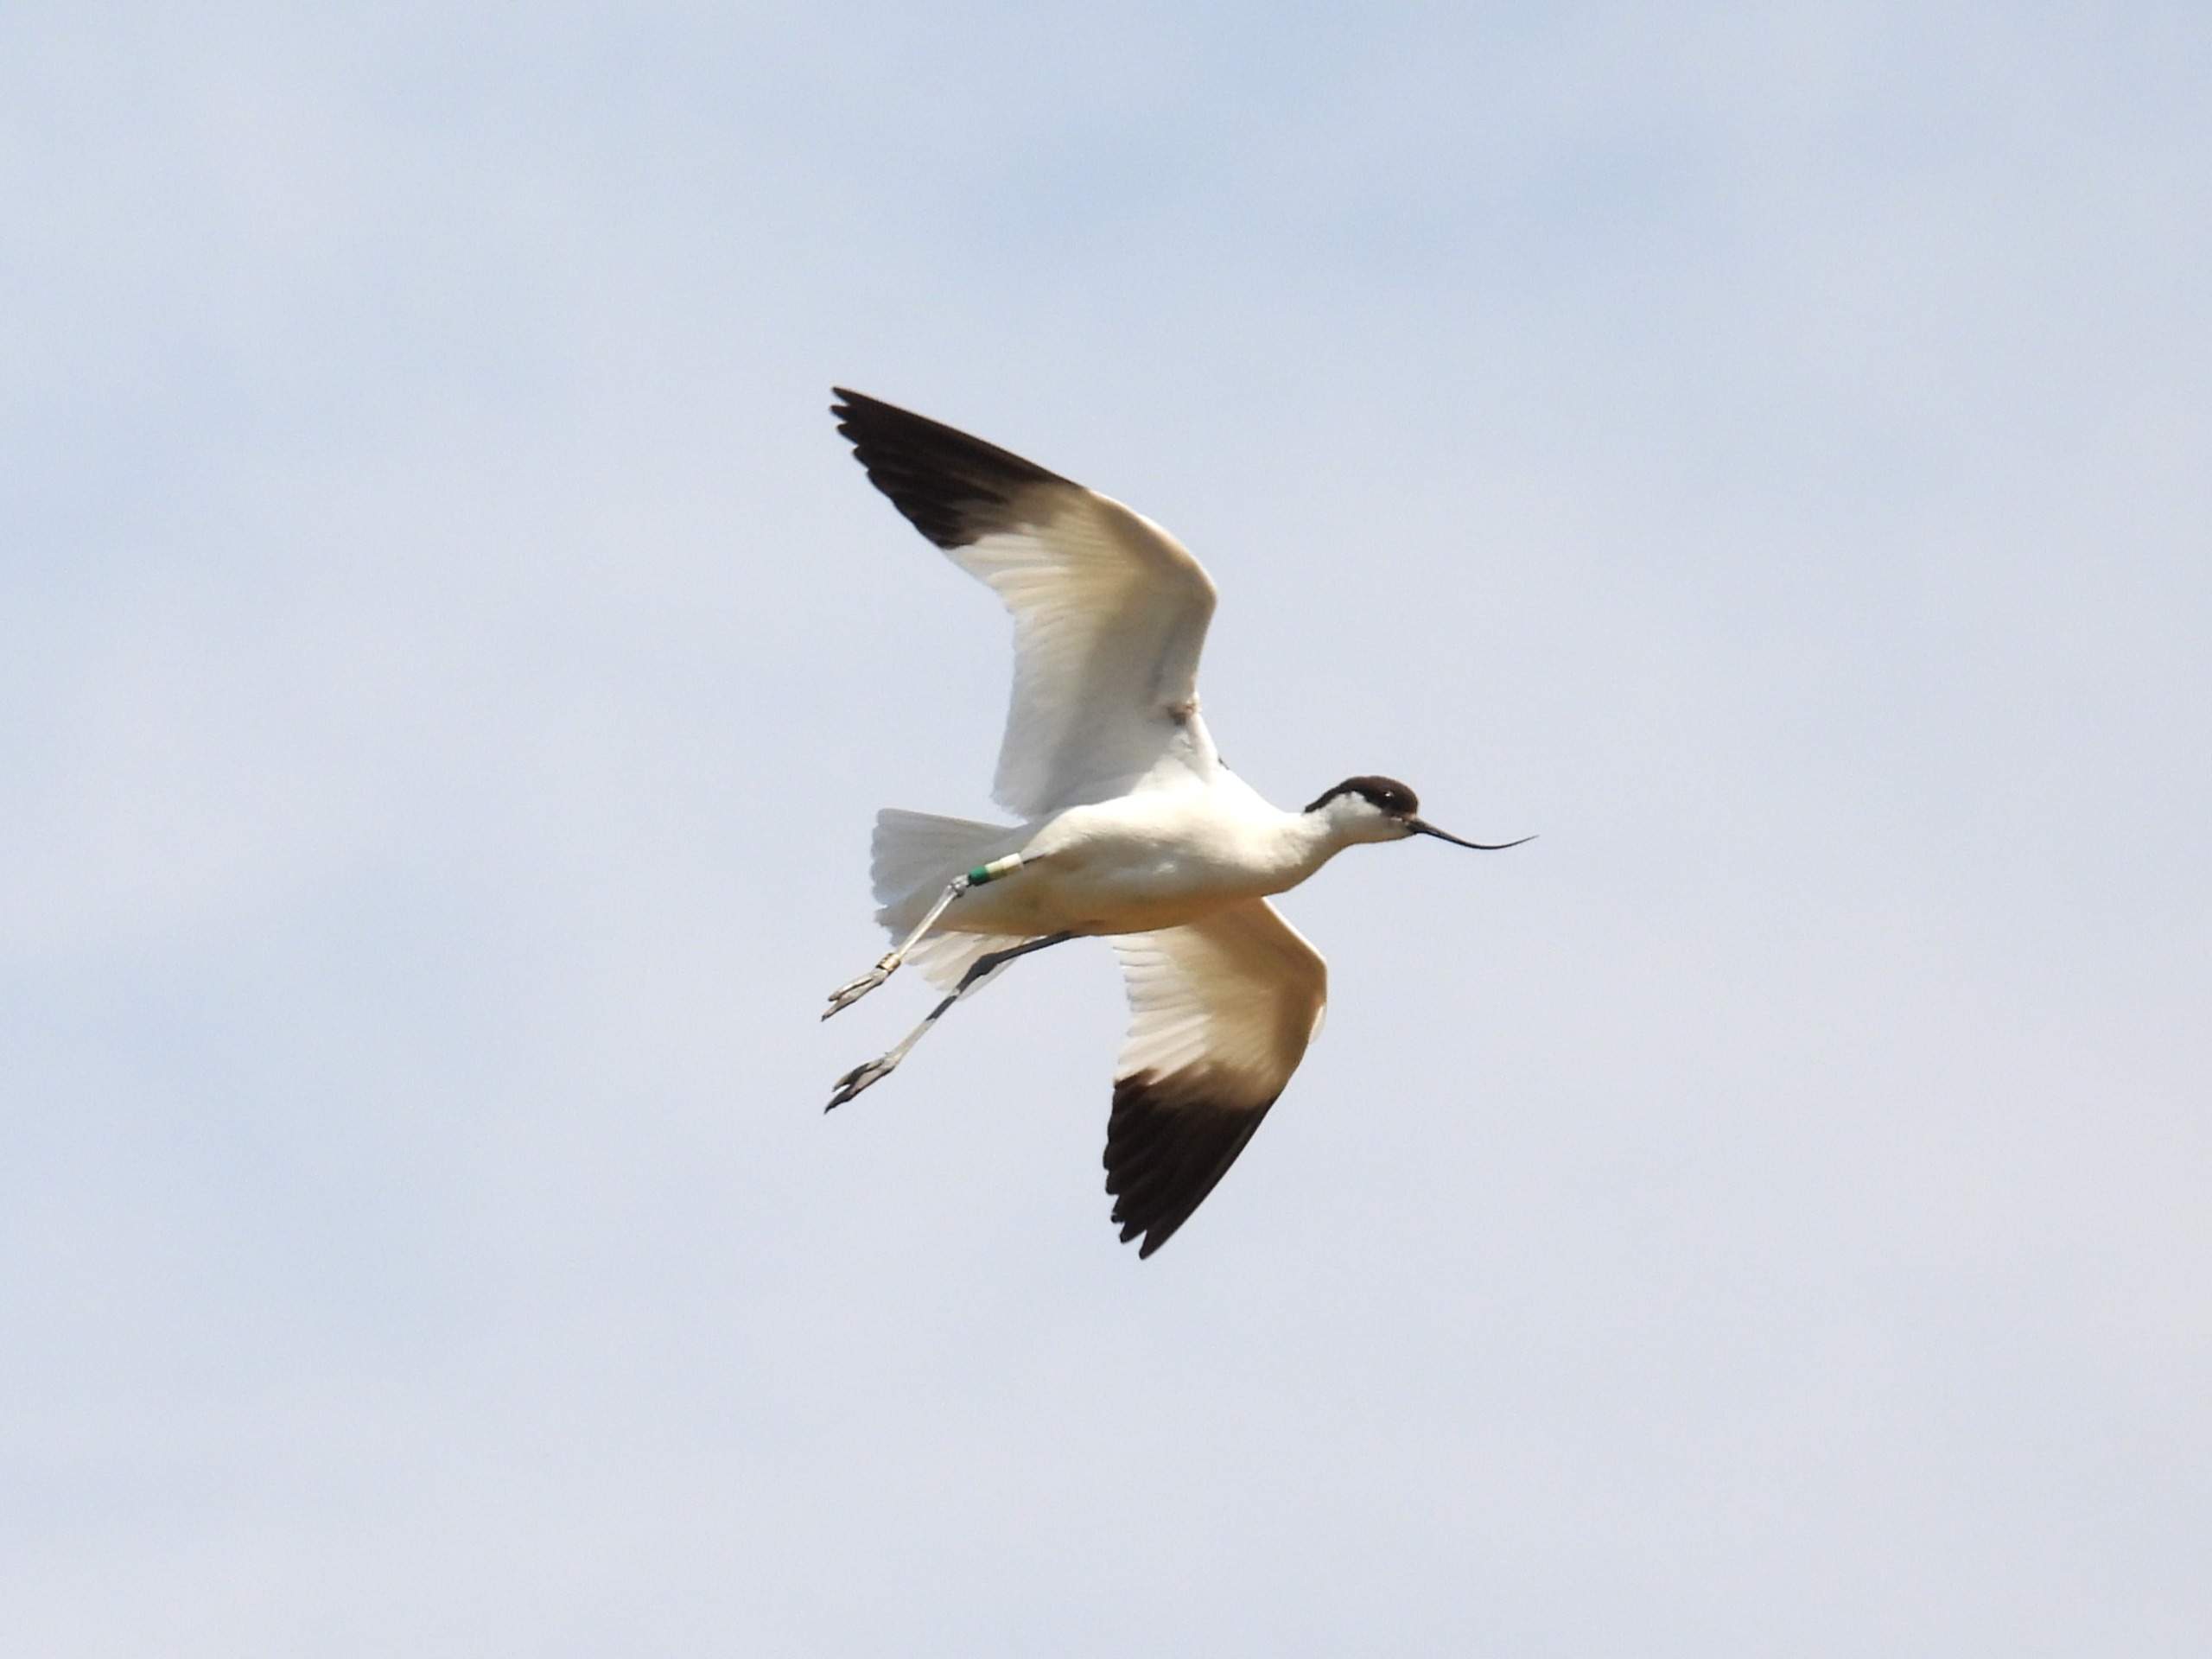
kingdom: Animalia
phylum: Chordata
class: Aves
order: Charadriiformes
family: Recurvirostridae
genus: Recurvirostra
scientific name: Recurvirostra avosetta
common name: Klyde
